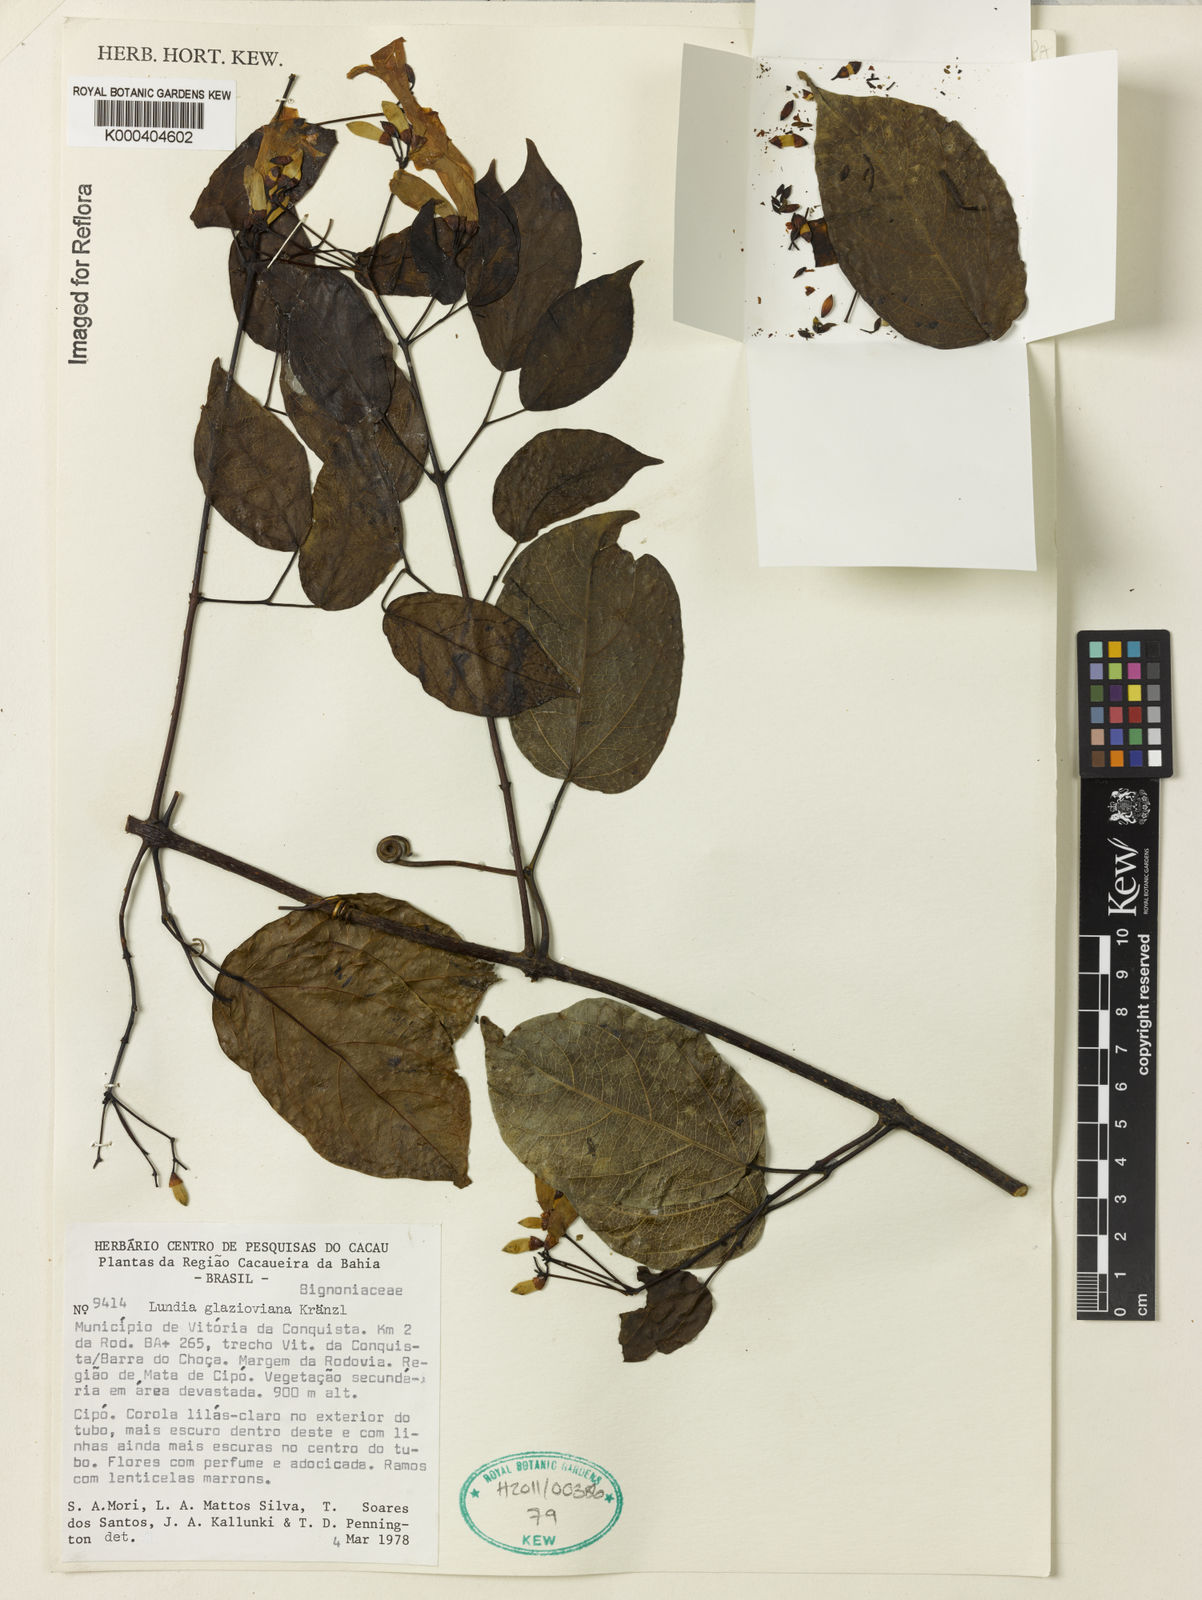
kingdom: Plantae
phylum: Tracheophyta
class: Magnoliopsida
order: Lamiales
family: Bignoniaceae
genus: Lundia
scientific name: Lundia virginalis
